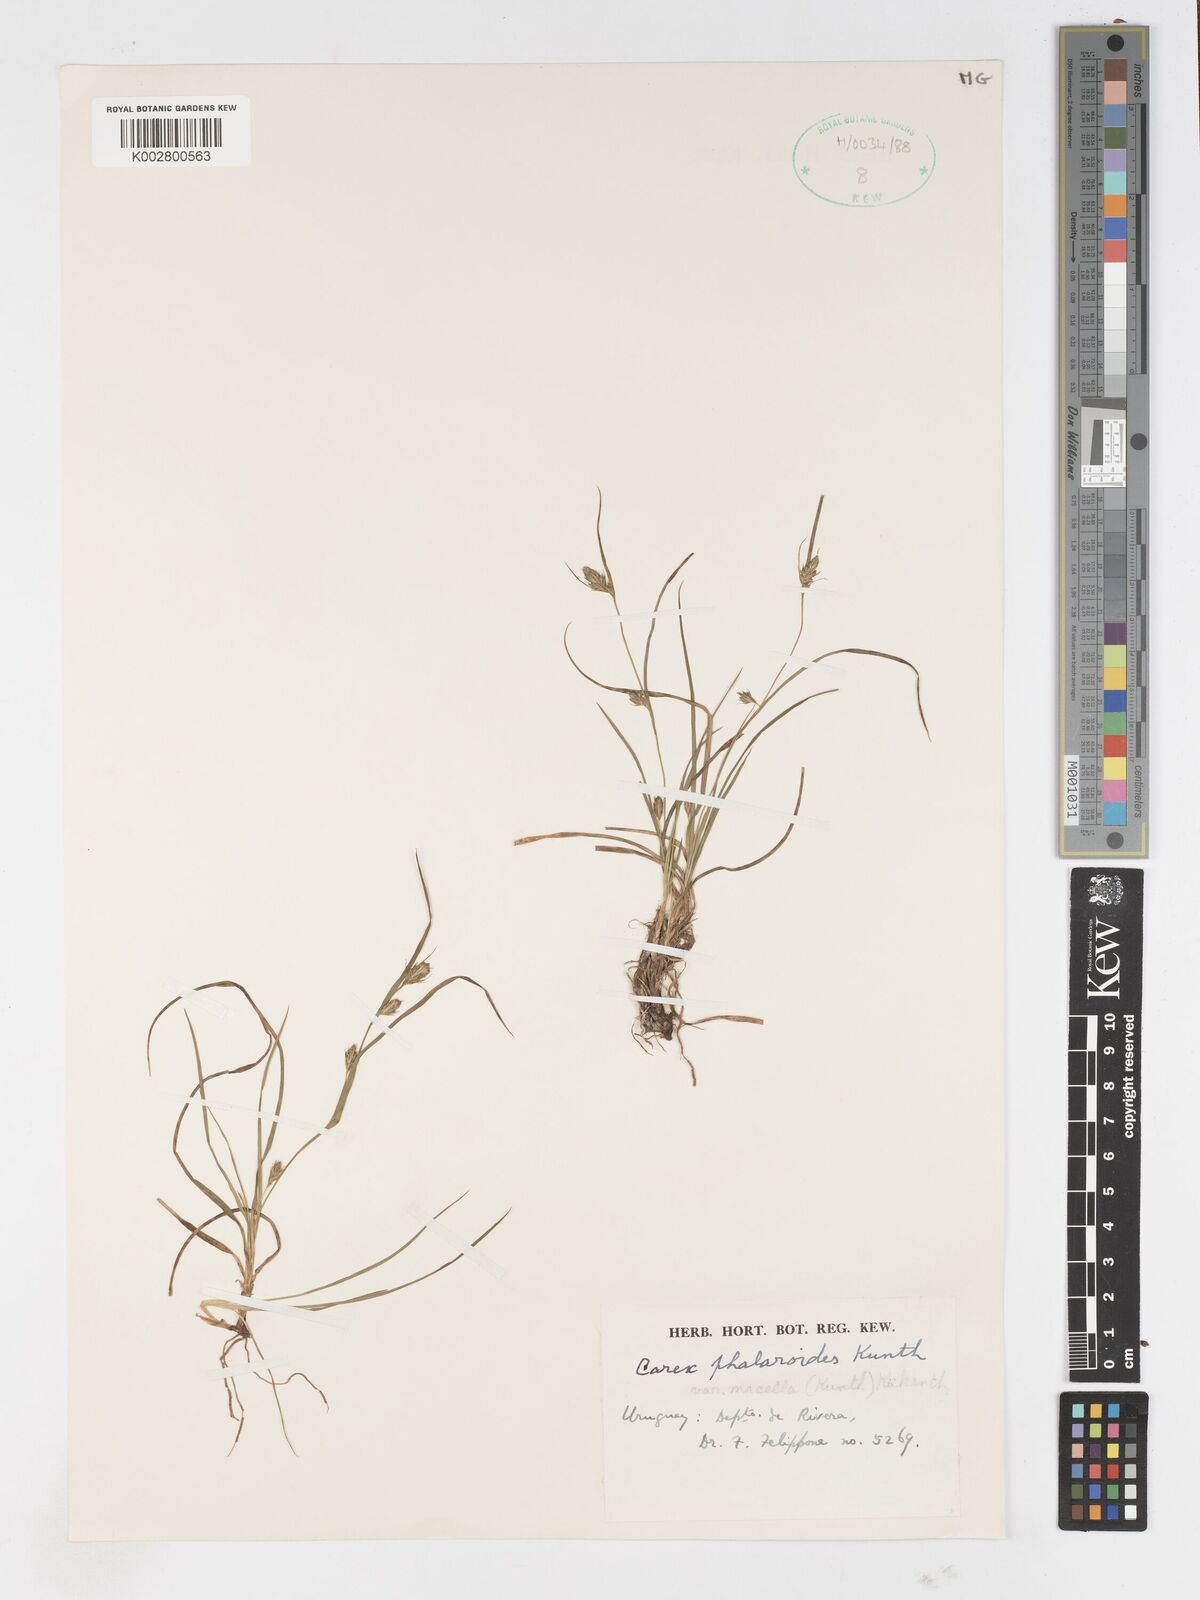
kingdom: Plantae
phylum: Tracheophyta
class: Liliopsida
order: Poales
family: Cyperaceae
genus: Carex
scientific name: Carex phalaroides
